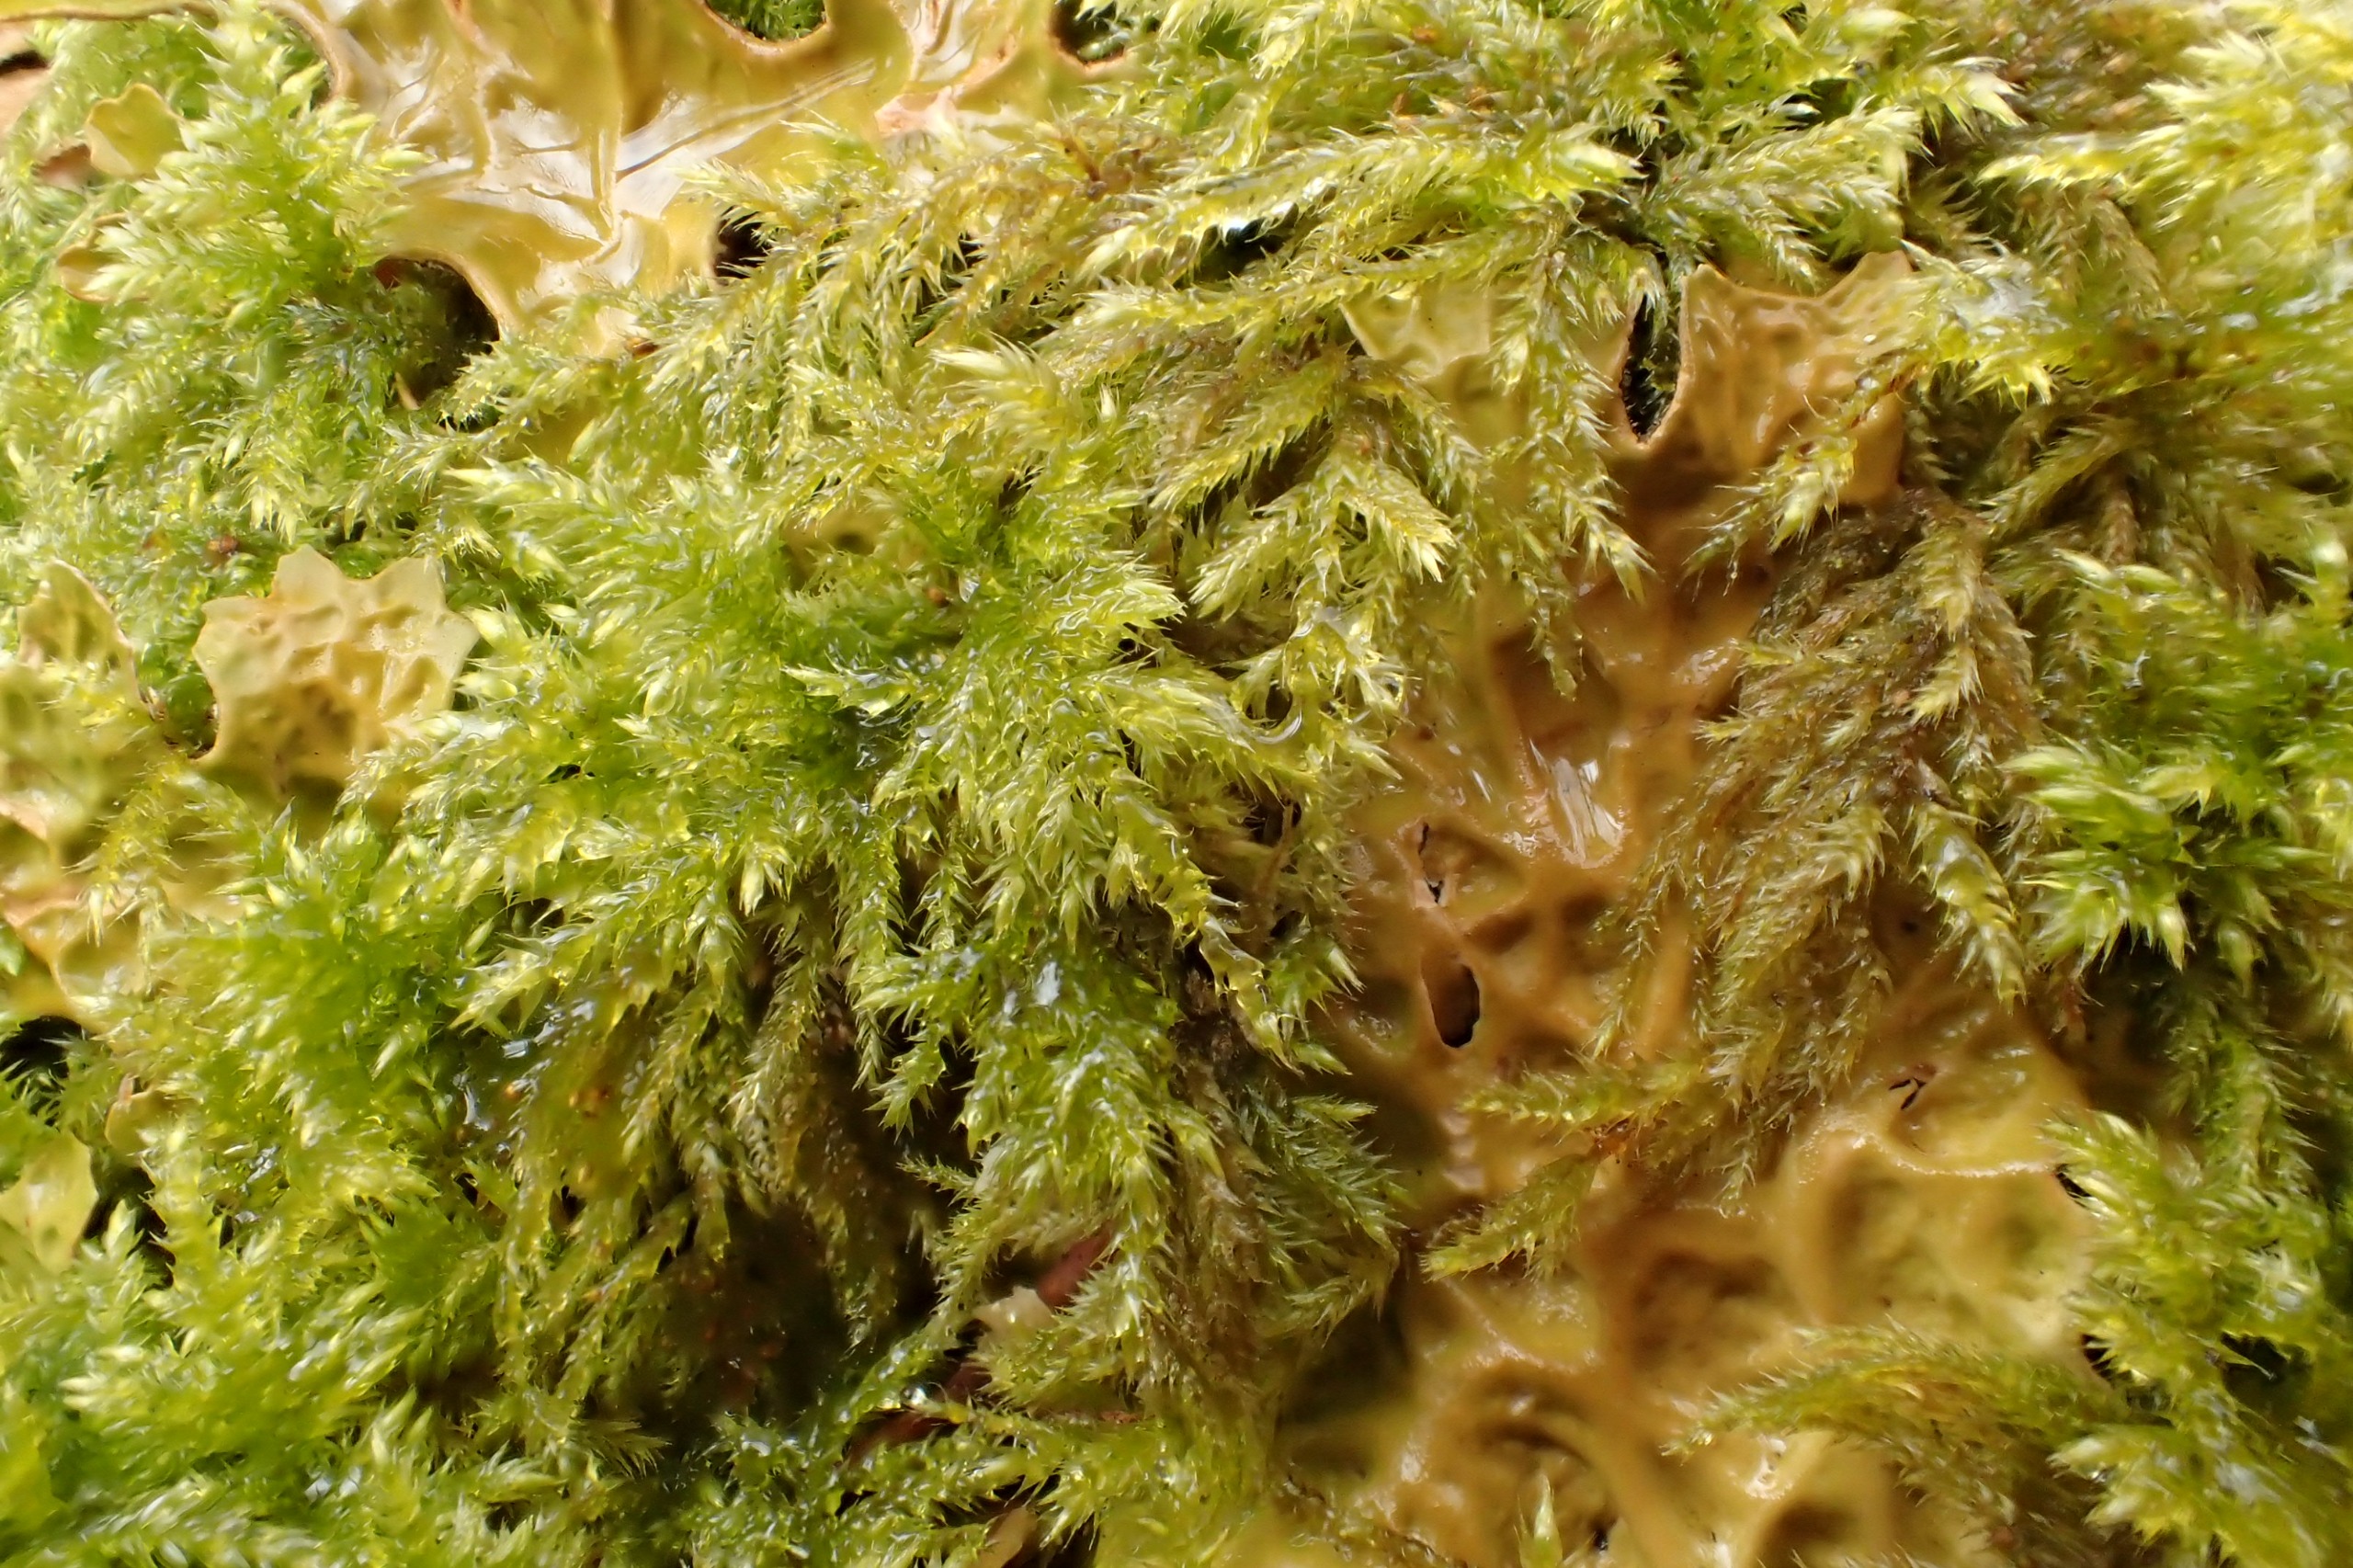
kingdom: Plantae
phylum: Bryophyta
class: Bryopsida
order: Hypnales
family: Lembophyllaceae
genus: Pseudisothecium
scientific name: Pseudisothecium myosuroides
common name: Slank stammemos
